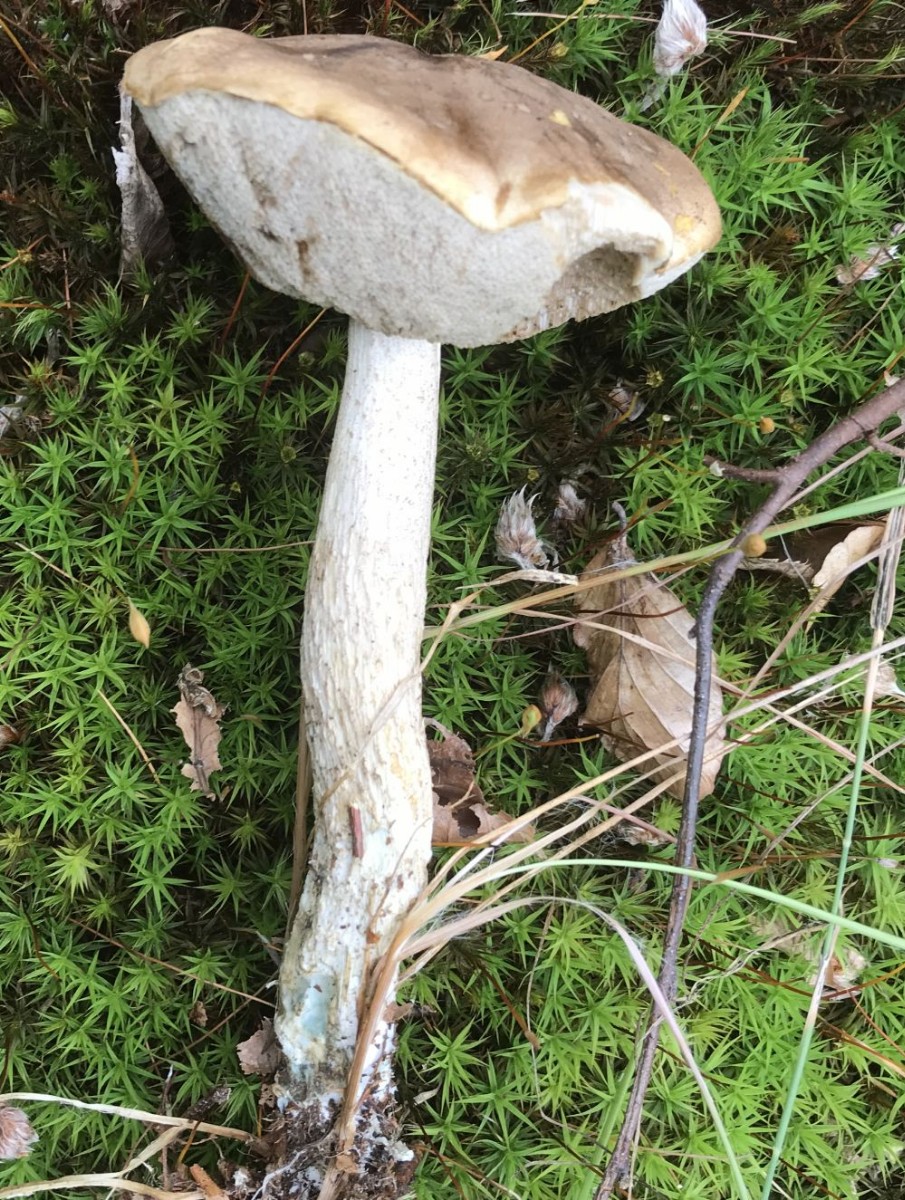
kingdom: Fungi
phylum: Basidiomycota
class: Agaricomycetes
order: Boletales
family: Boletaceae
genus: Leccinum
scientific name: Leccinum cyaneobasileucum
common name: almindelig skælrørhat
